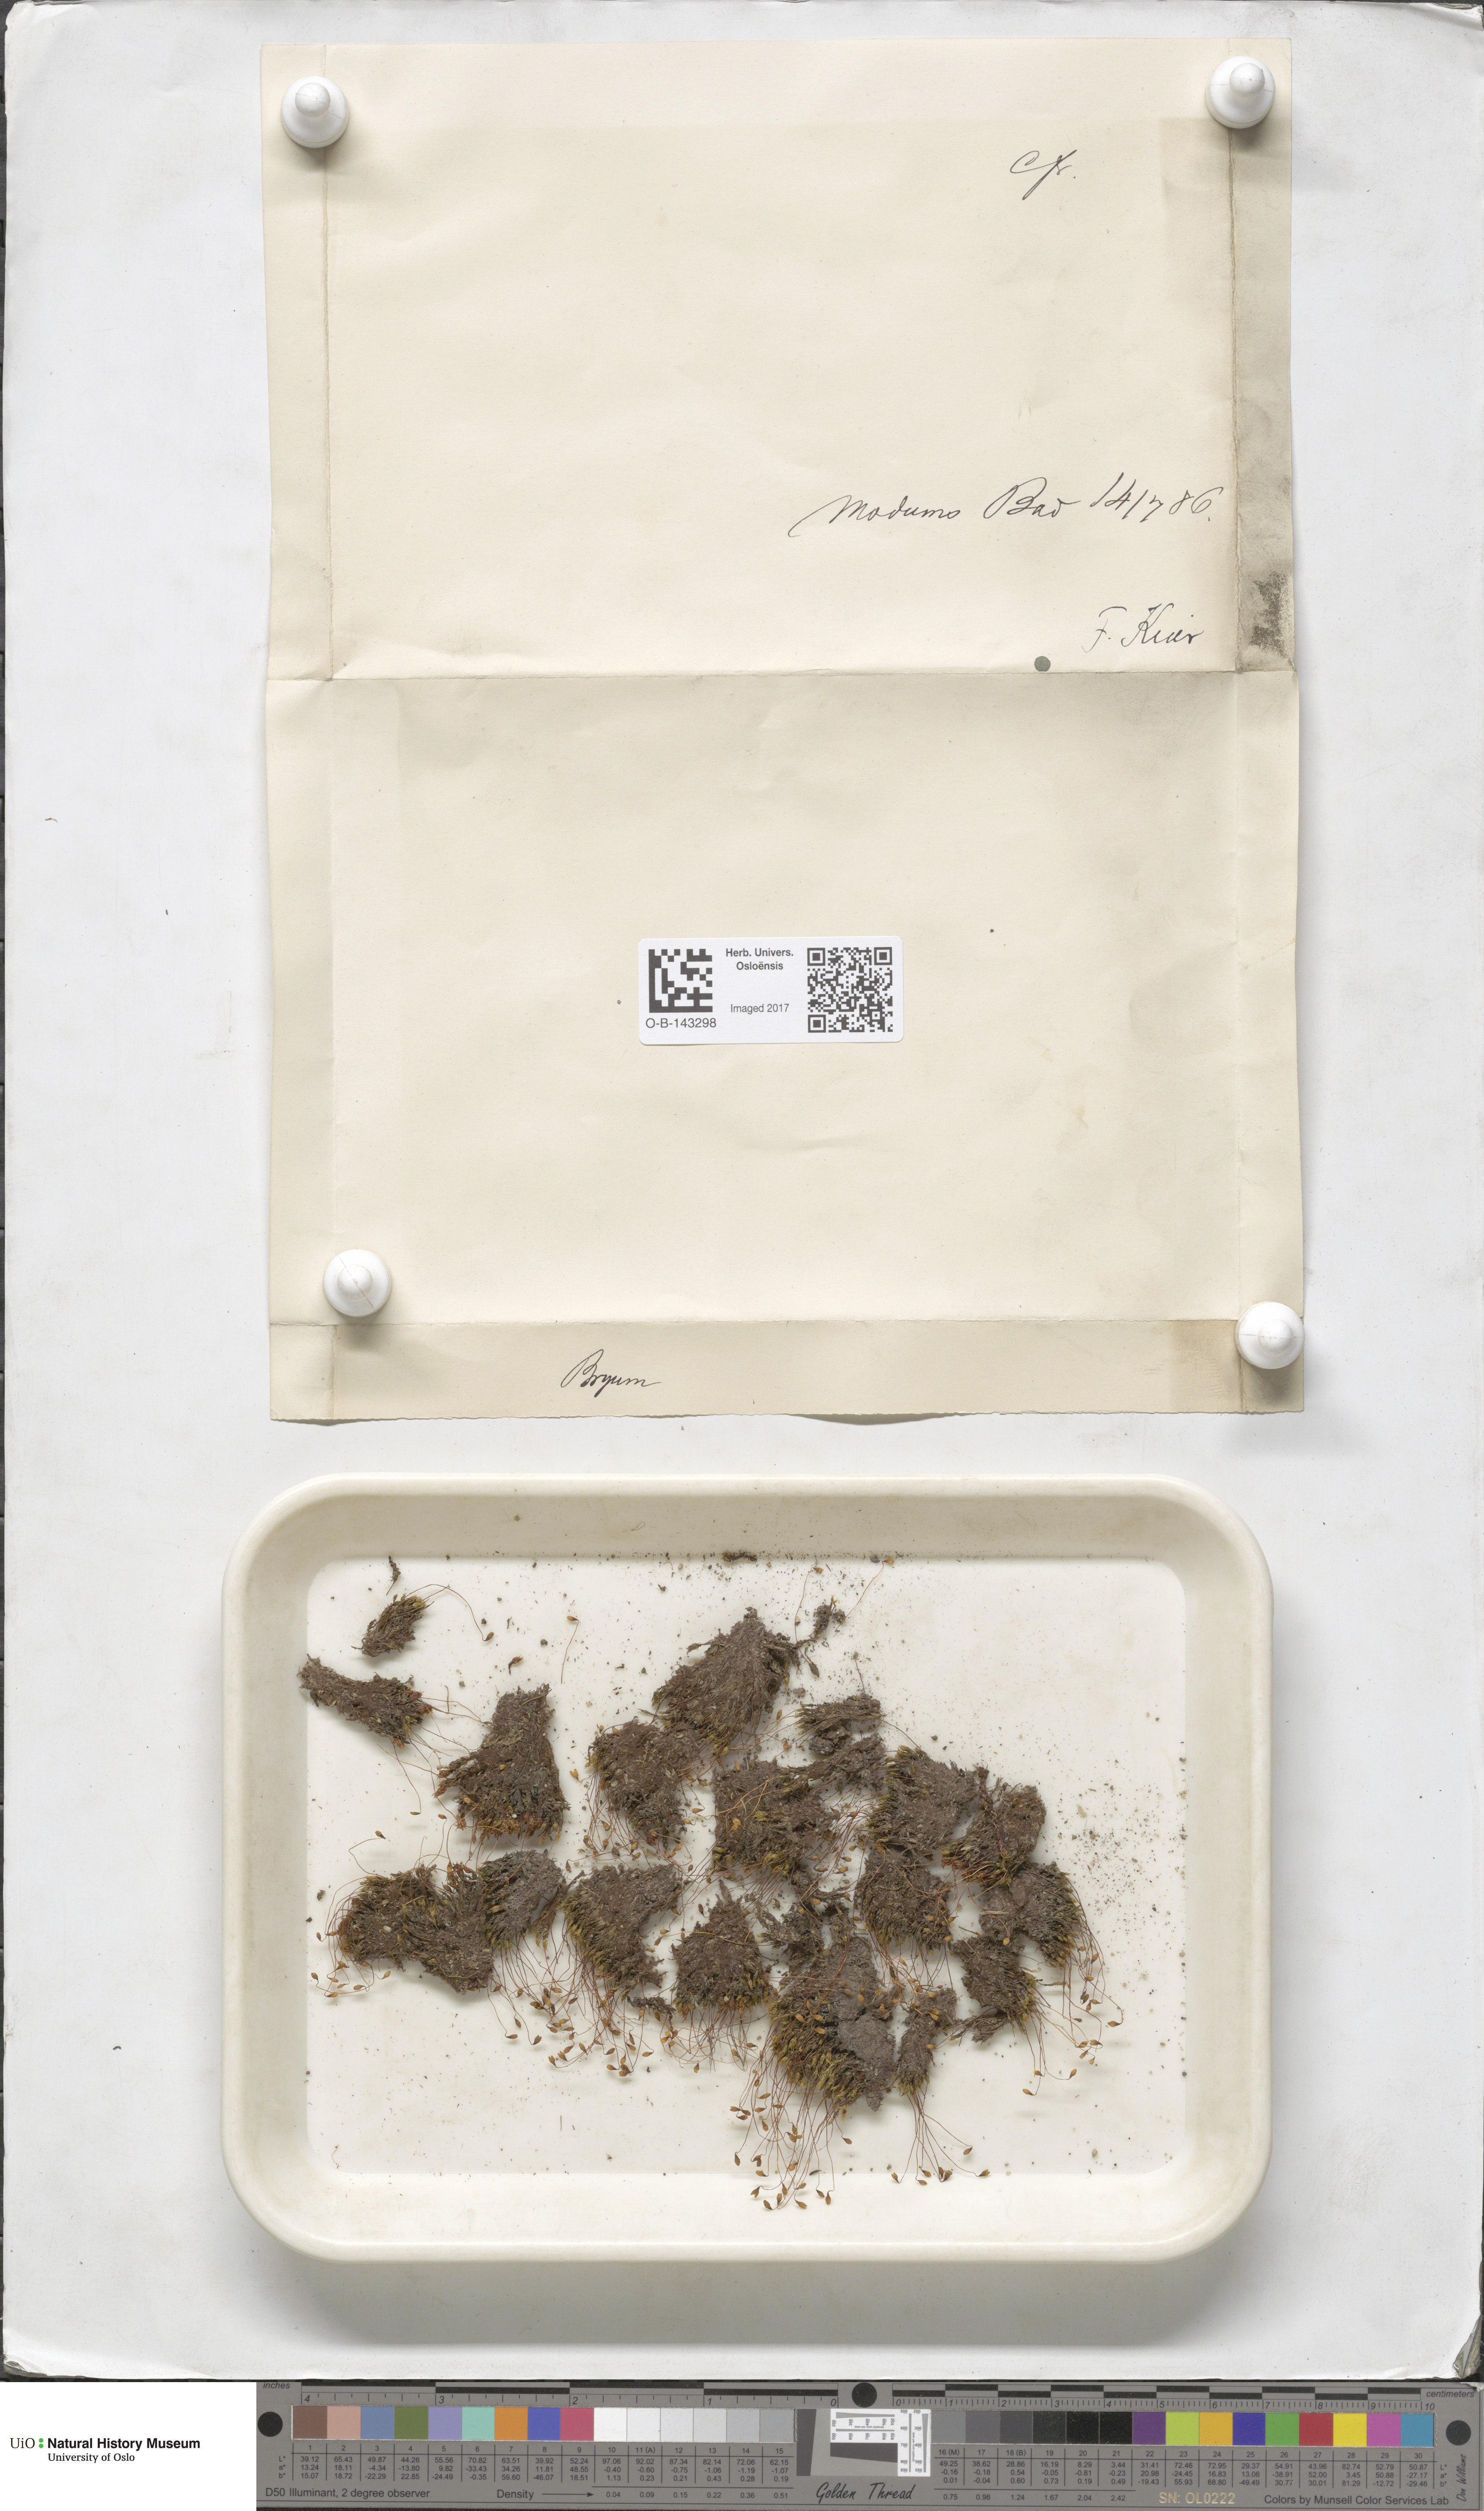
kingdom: Plantae
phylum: Bryophyta
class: Bryopsida
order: Bryales
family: Bryaceae
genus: Bryum
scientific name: Bryum
